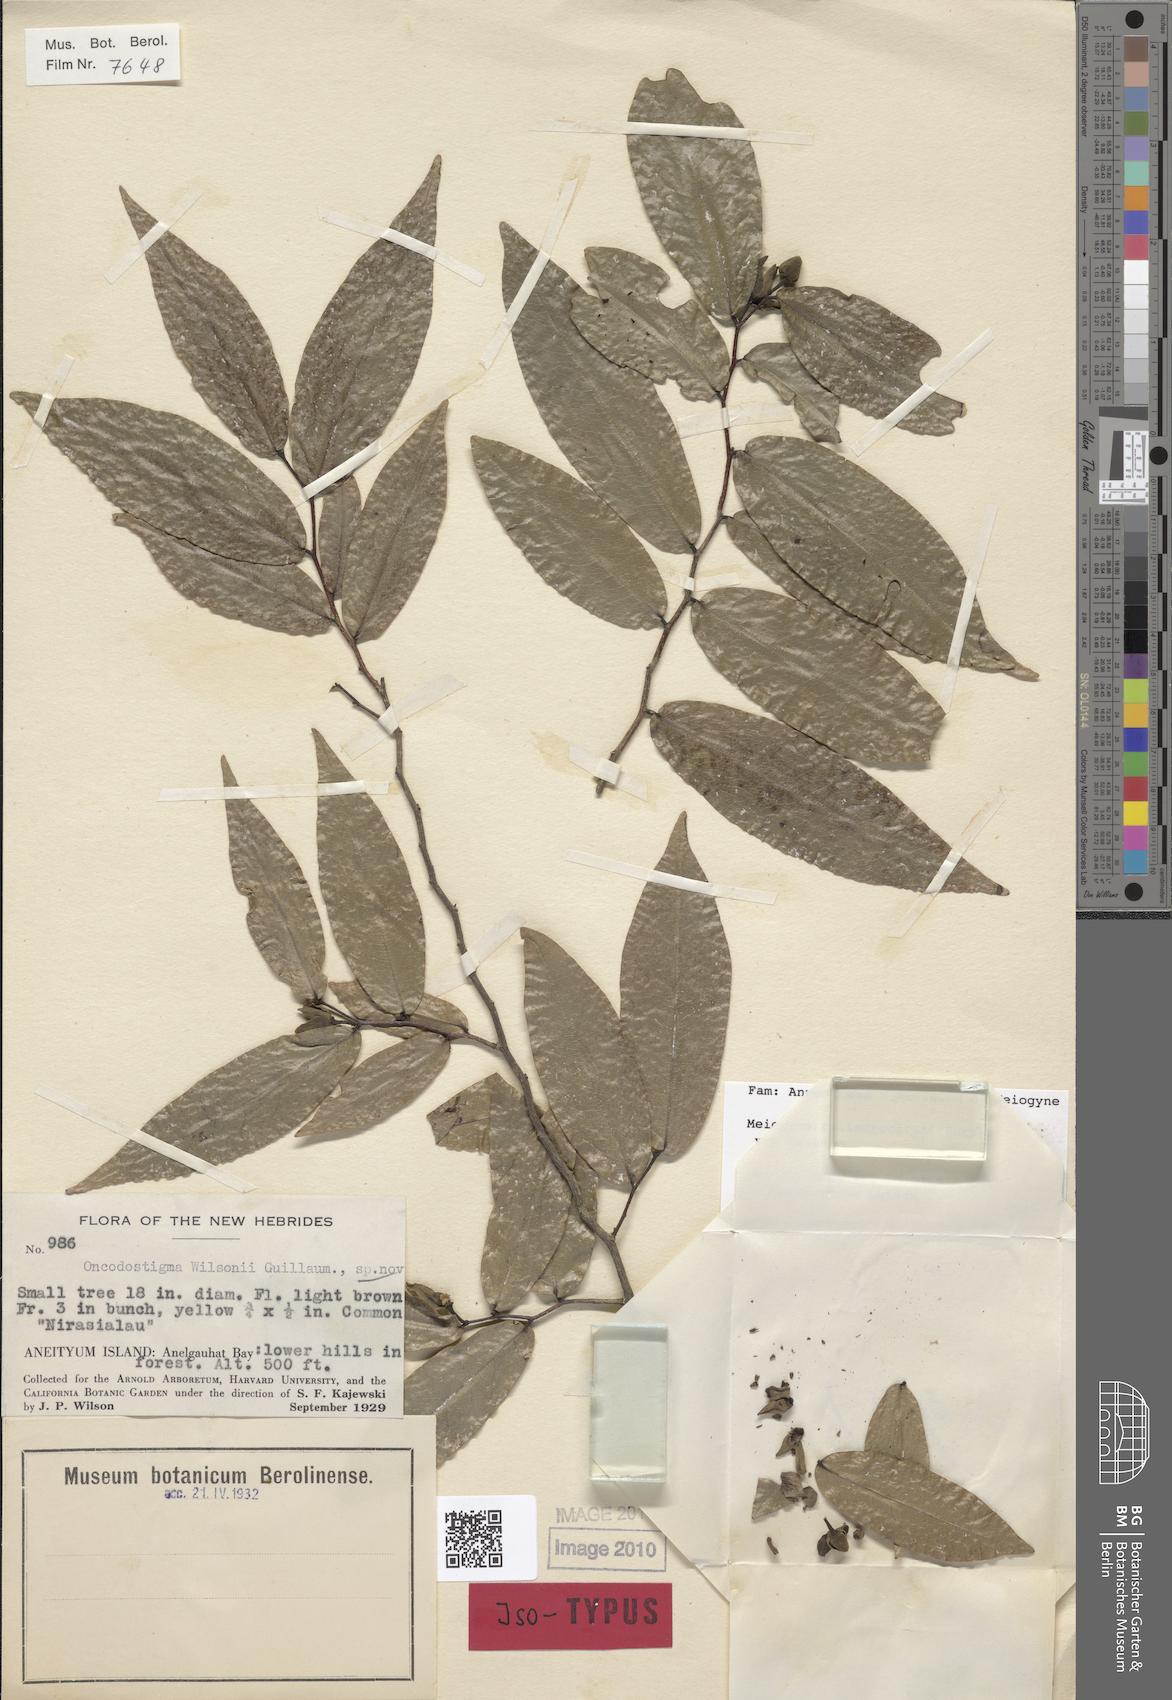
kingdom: Plantae
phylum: Tracheophyta
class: Magnoliopsida
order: Magnoliales
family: Annonaceae
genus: Meiogyne
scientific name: Meiogyne cylindrocarpa
